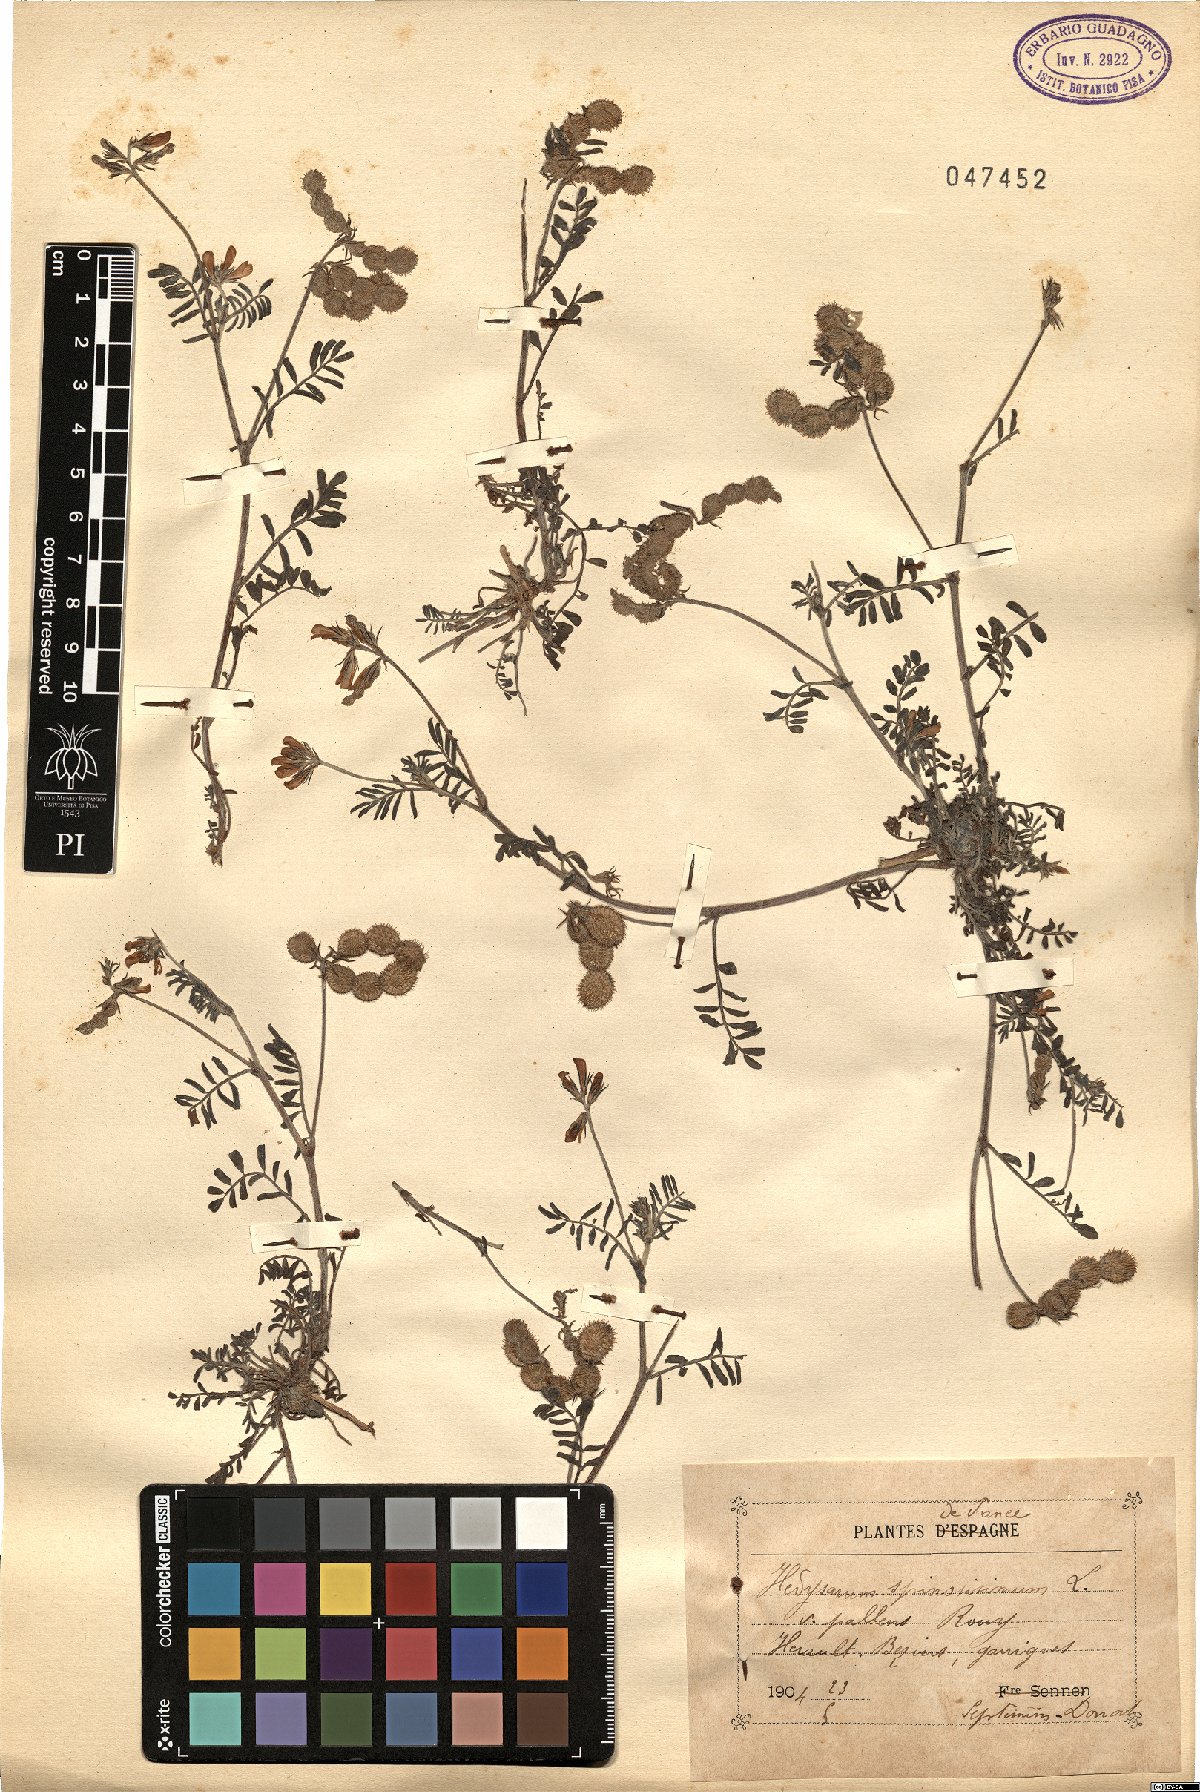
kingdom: Plantae
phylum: Tracheophyta
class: Magnoliopsida
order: Fabales
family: Fabaceae
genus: Sulla
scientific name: Sulla spinosissima
